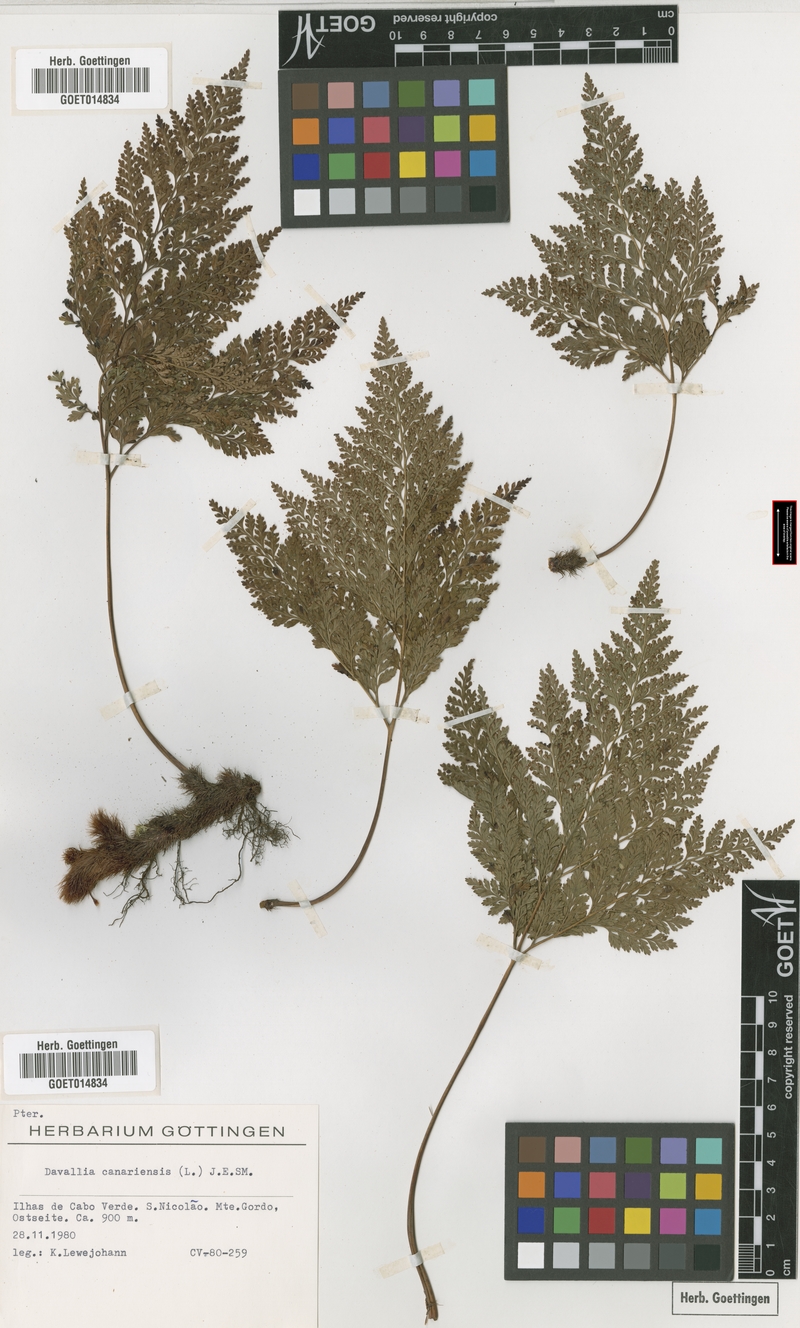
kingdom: Plantae
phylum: Tracheophyta
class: Polypodiopsida
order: Polypodiales
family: Davalliaceae
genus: Davallia
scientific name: Davallia canariensis
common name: Hare's-foot fern
